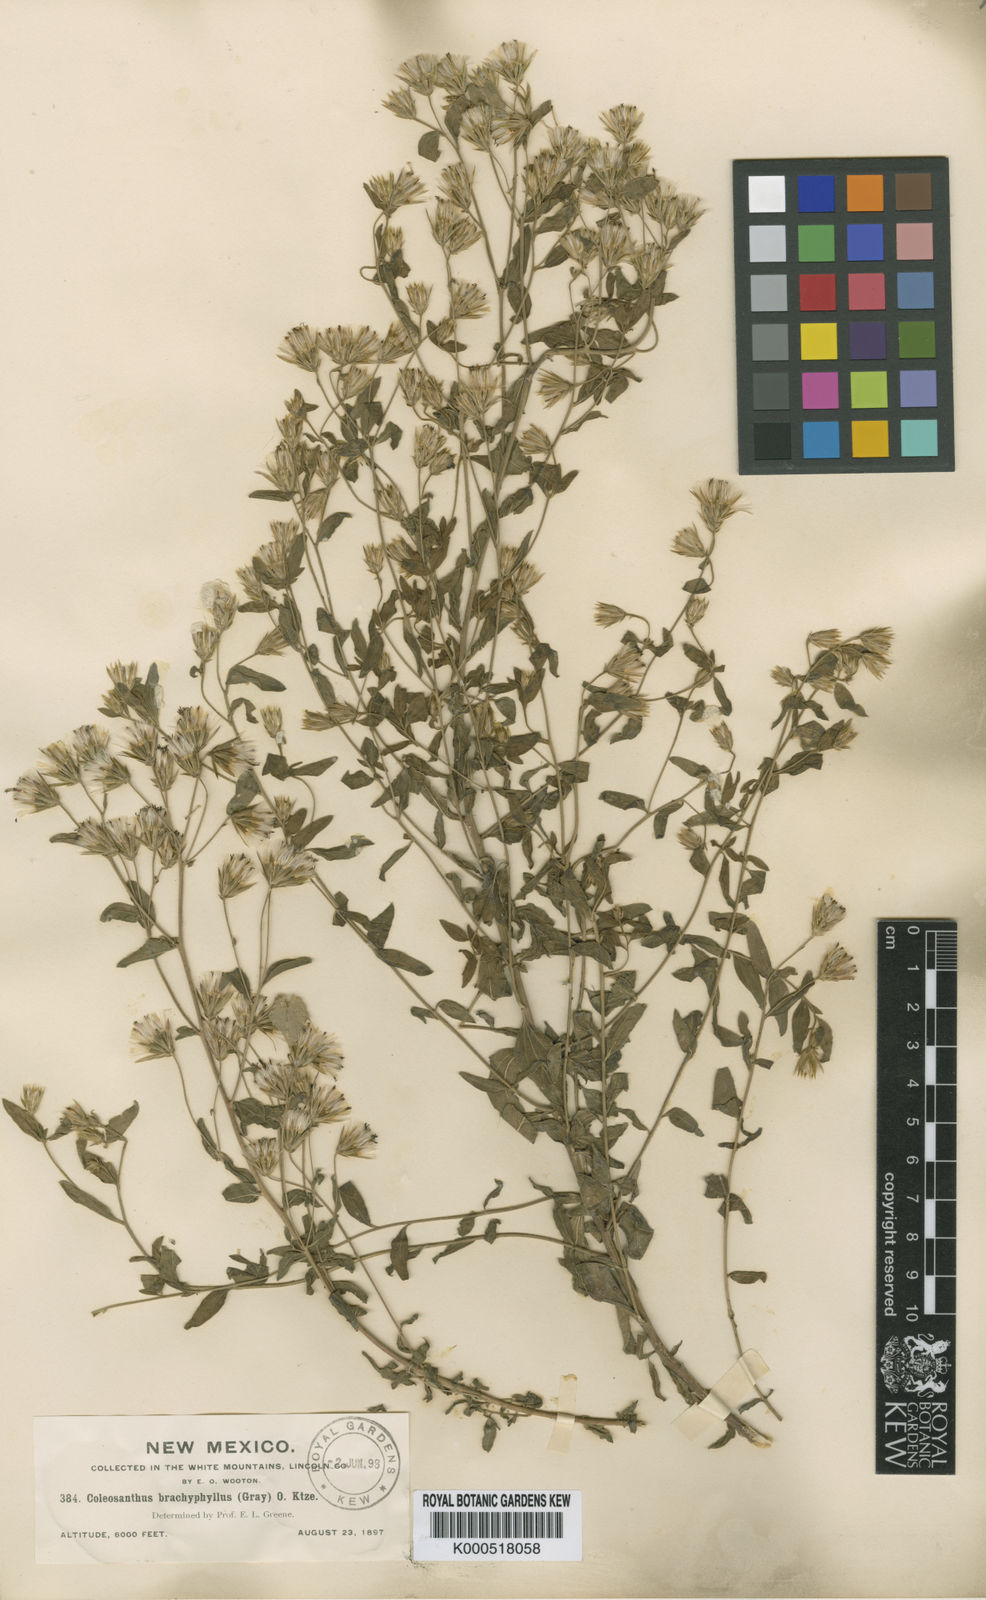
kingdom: Plantae
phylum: Tracheophyta
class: Magnoliopsida
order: Asterales
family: Asteraceae
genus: Brickellia
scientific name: Brickellia brachyphylla
